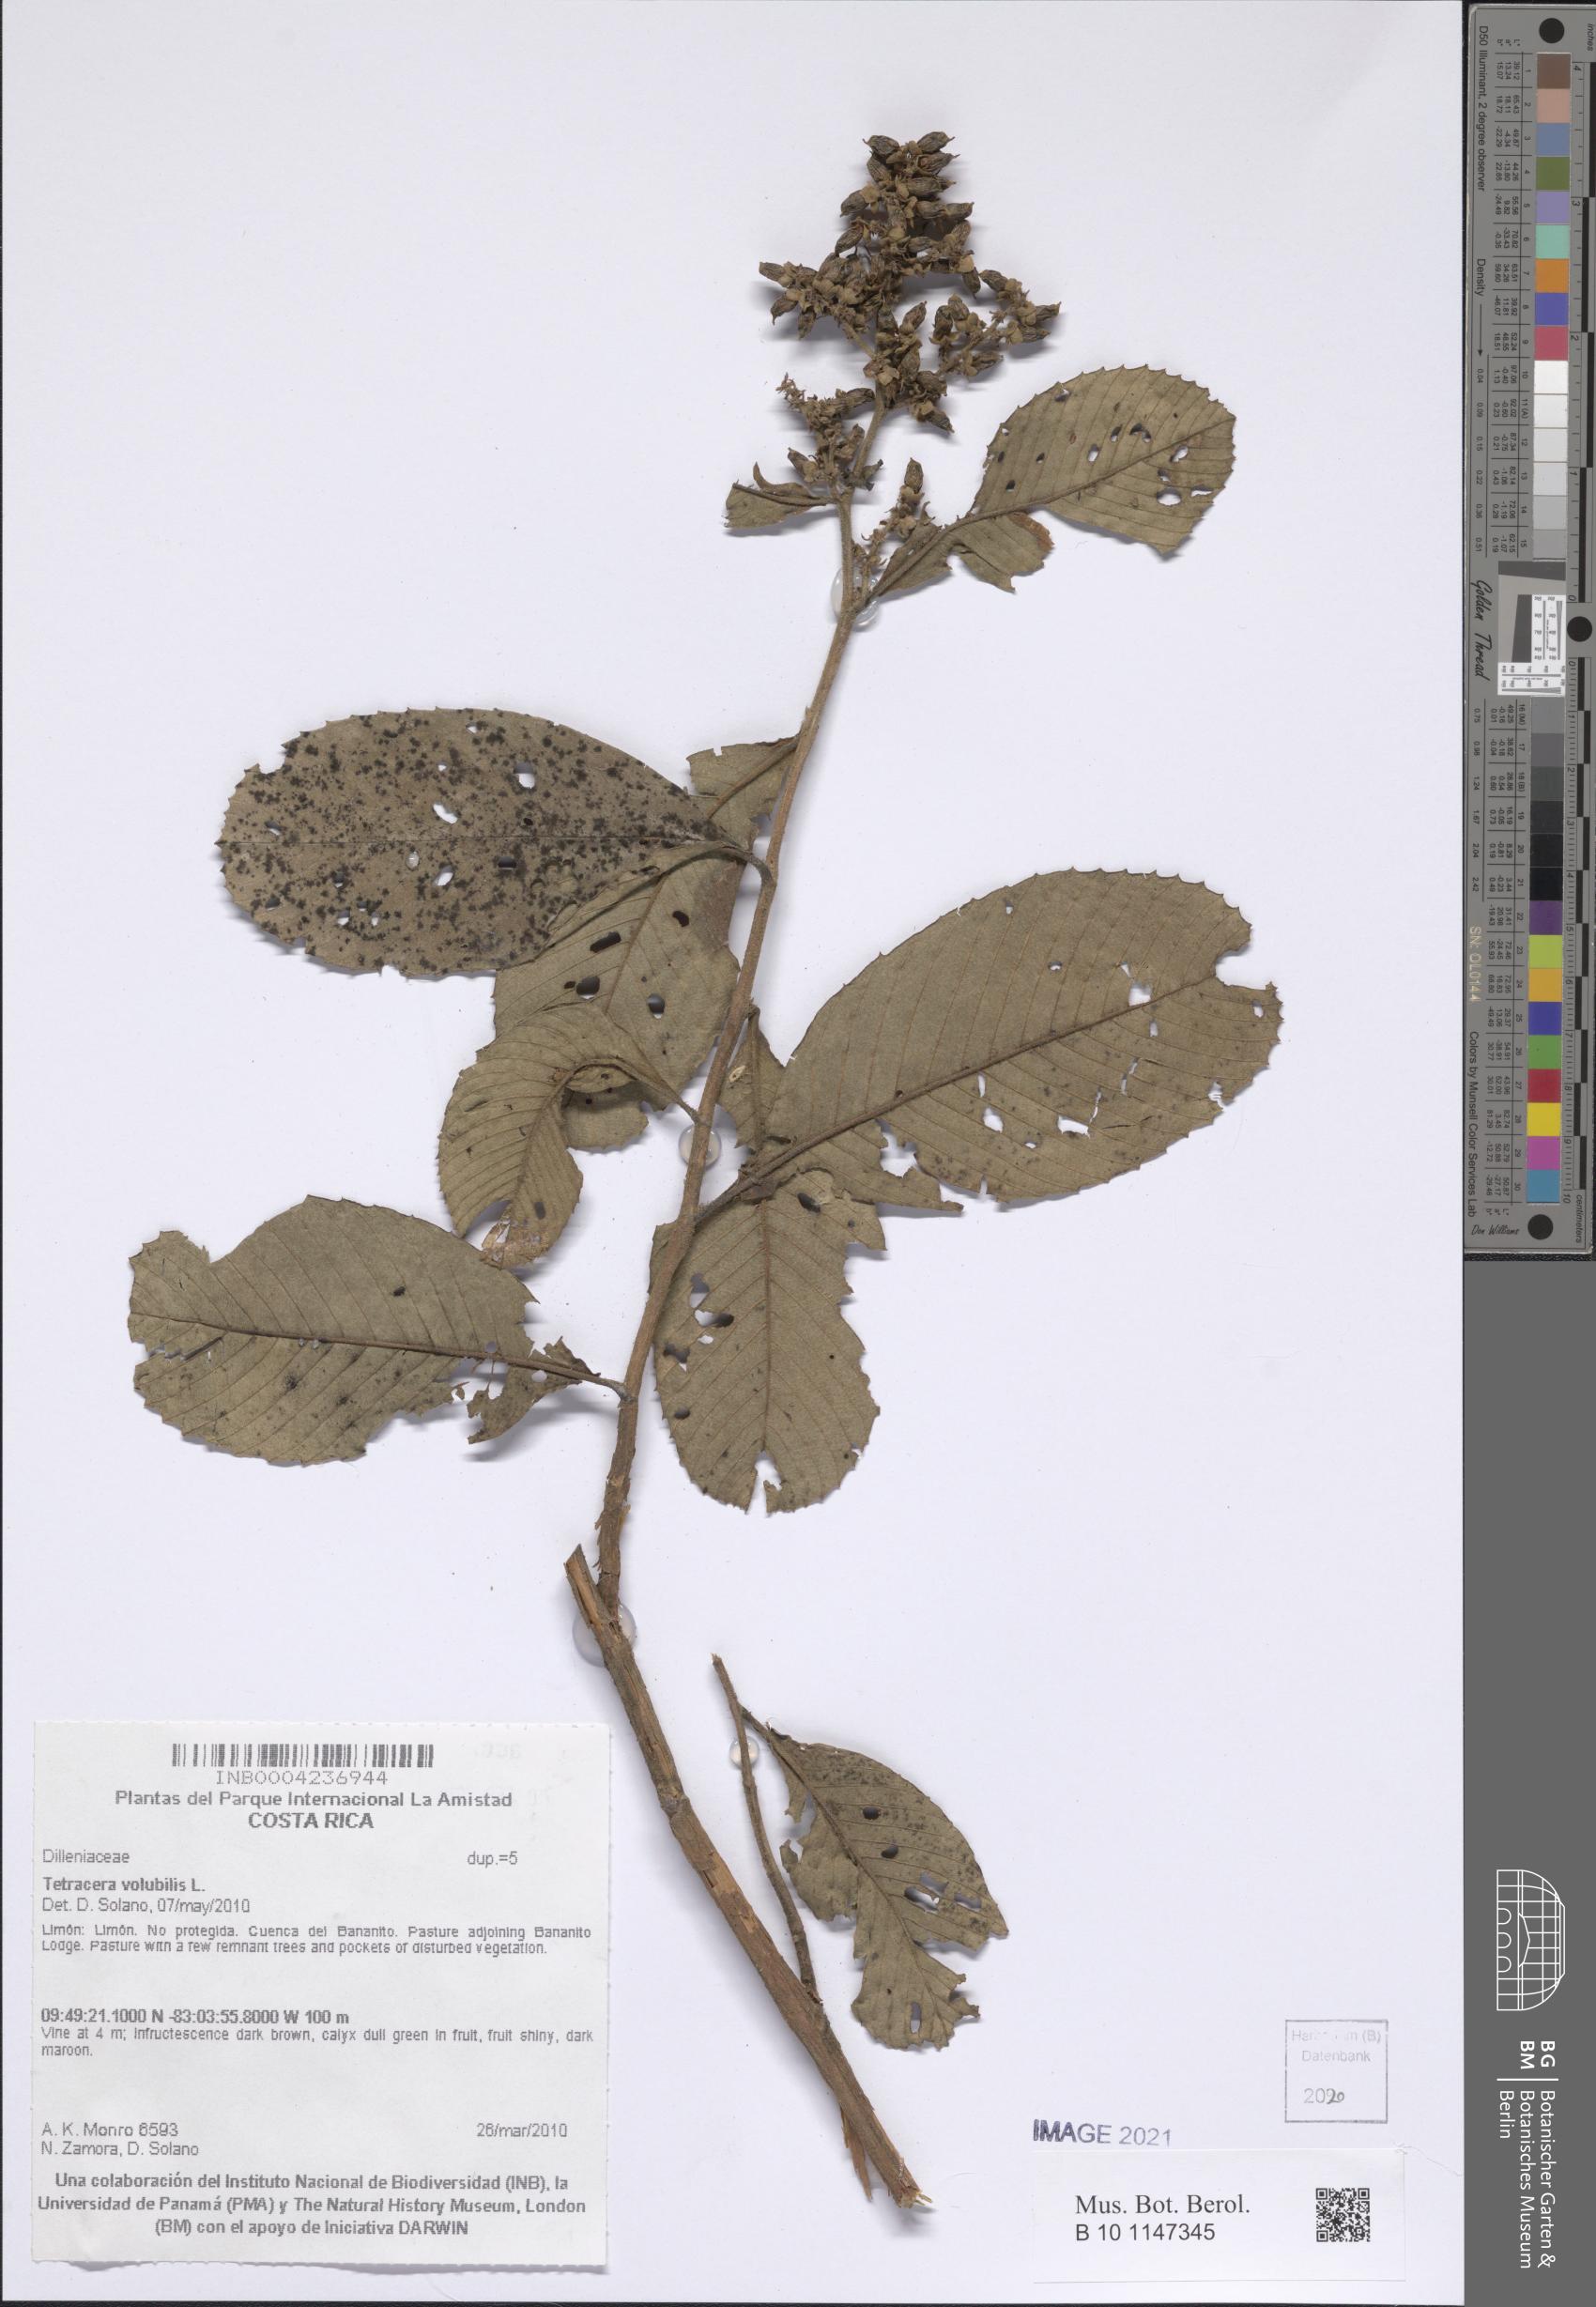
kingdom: Plantae
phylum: Tracheophyta
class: Magnoliopsida
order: Dilleniales
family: Dilleniaceae
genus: Tetracera
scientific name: Tetracera volubilis
